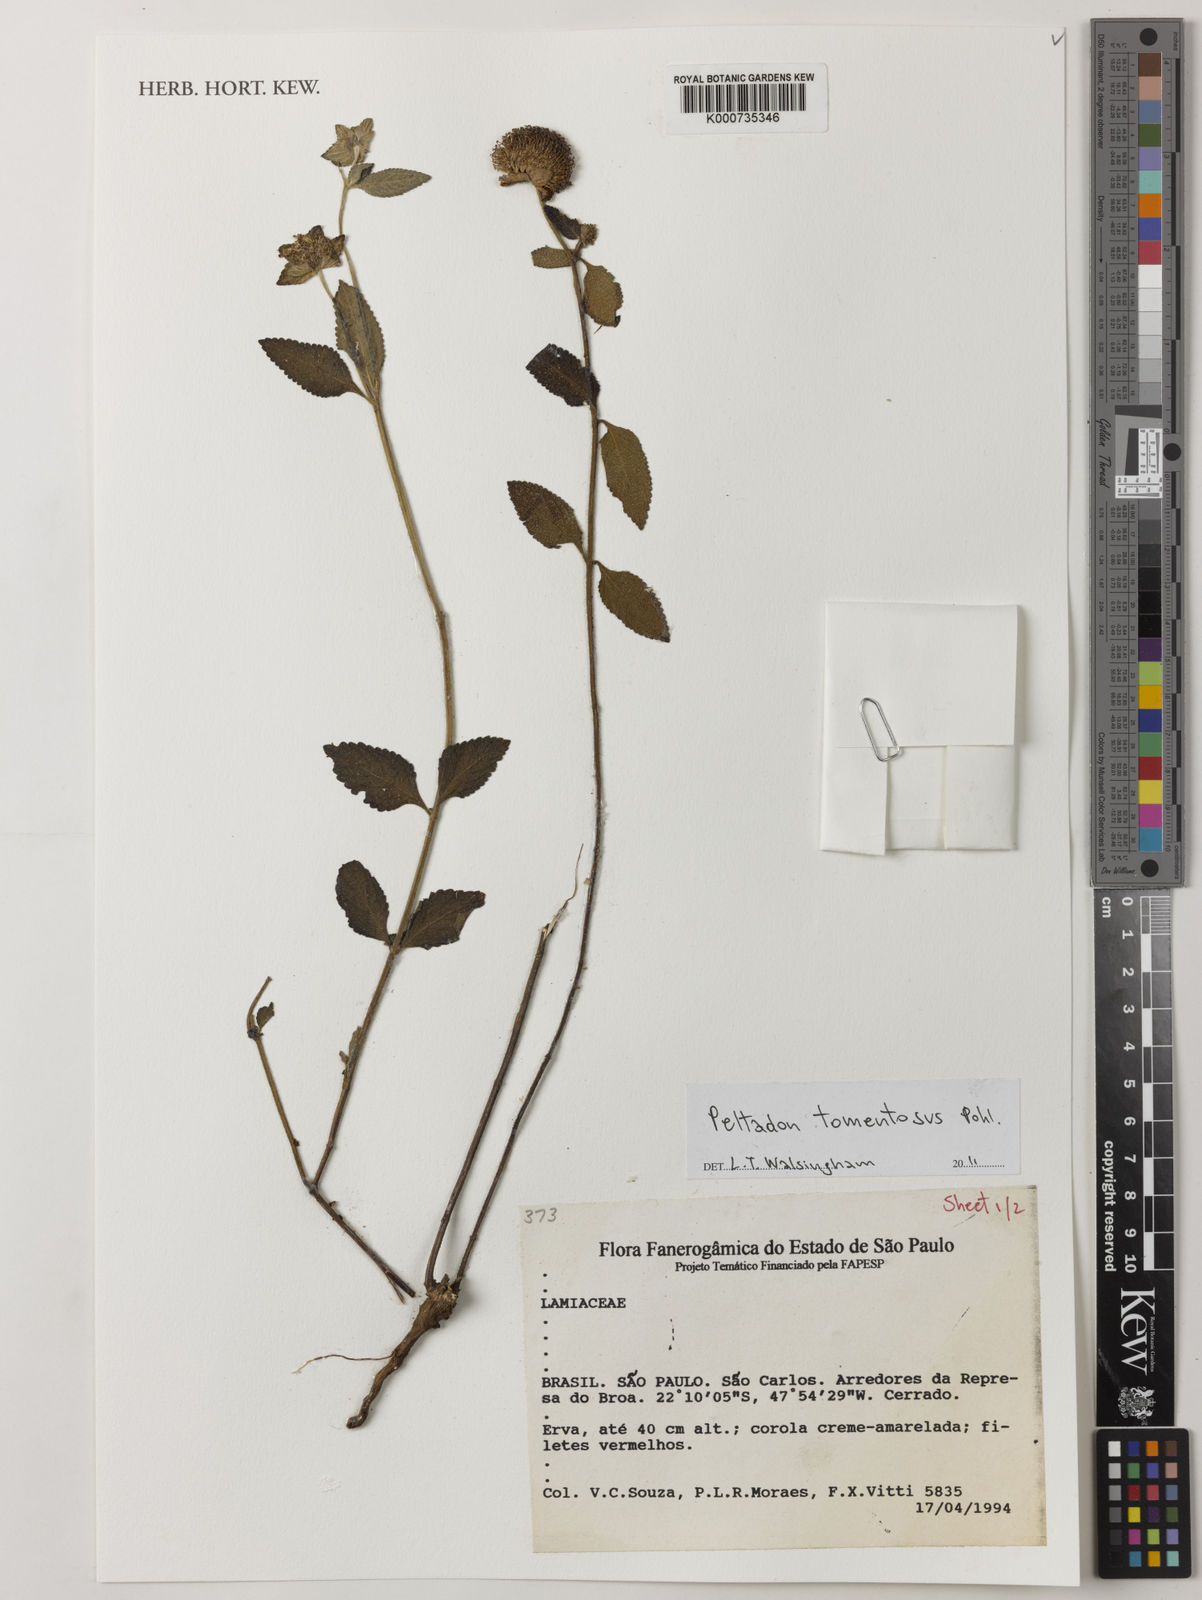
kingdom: Plantae
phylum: Tracheophyta
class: Magnoliopsida
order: Lamiales
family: Lamiaceae
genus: Hyptis
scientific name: Hyptis campestris
